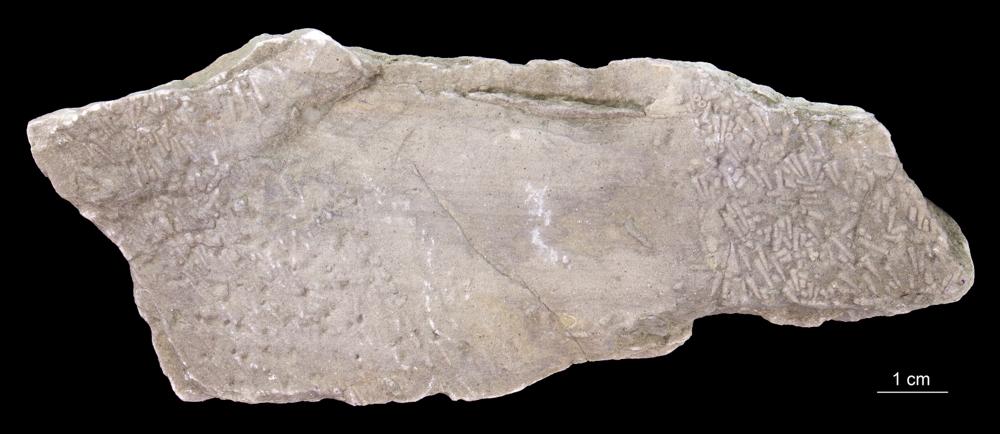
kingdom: Animalia
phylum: Annelida
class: Polychaeta
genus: Volborthella
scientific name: Volborthella tenuis
